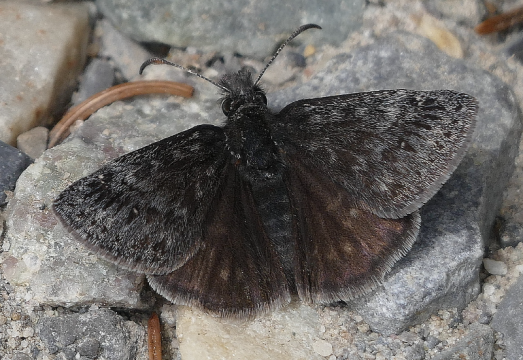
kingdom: Animalia
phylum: Arthropoda
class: Insecta
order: Lepidoptera
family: Hesperiidae
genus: Gesta
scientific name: Gesta
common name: Persius Duskywing
